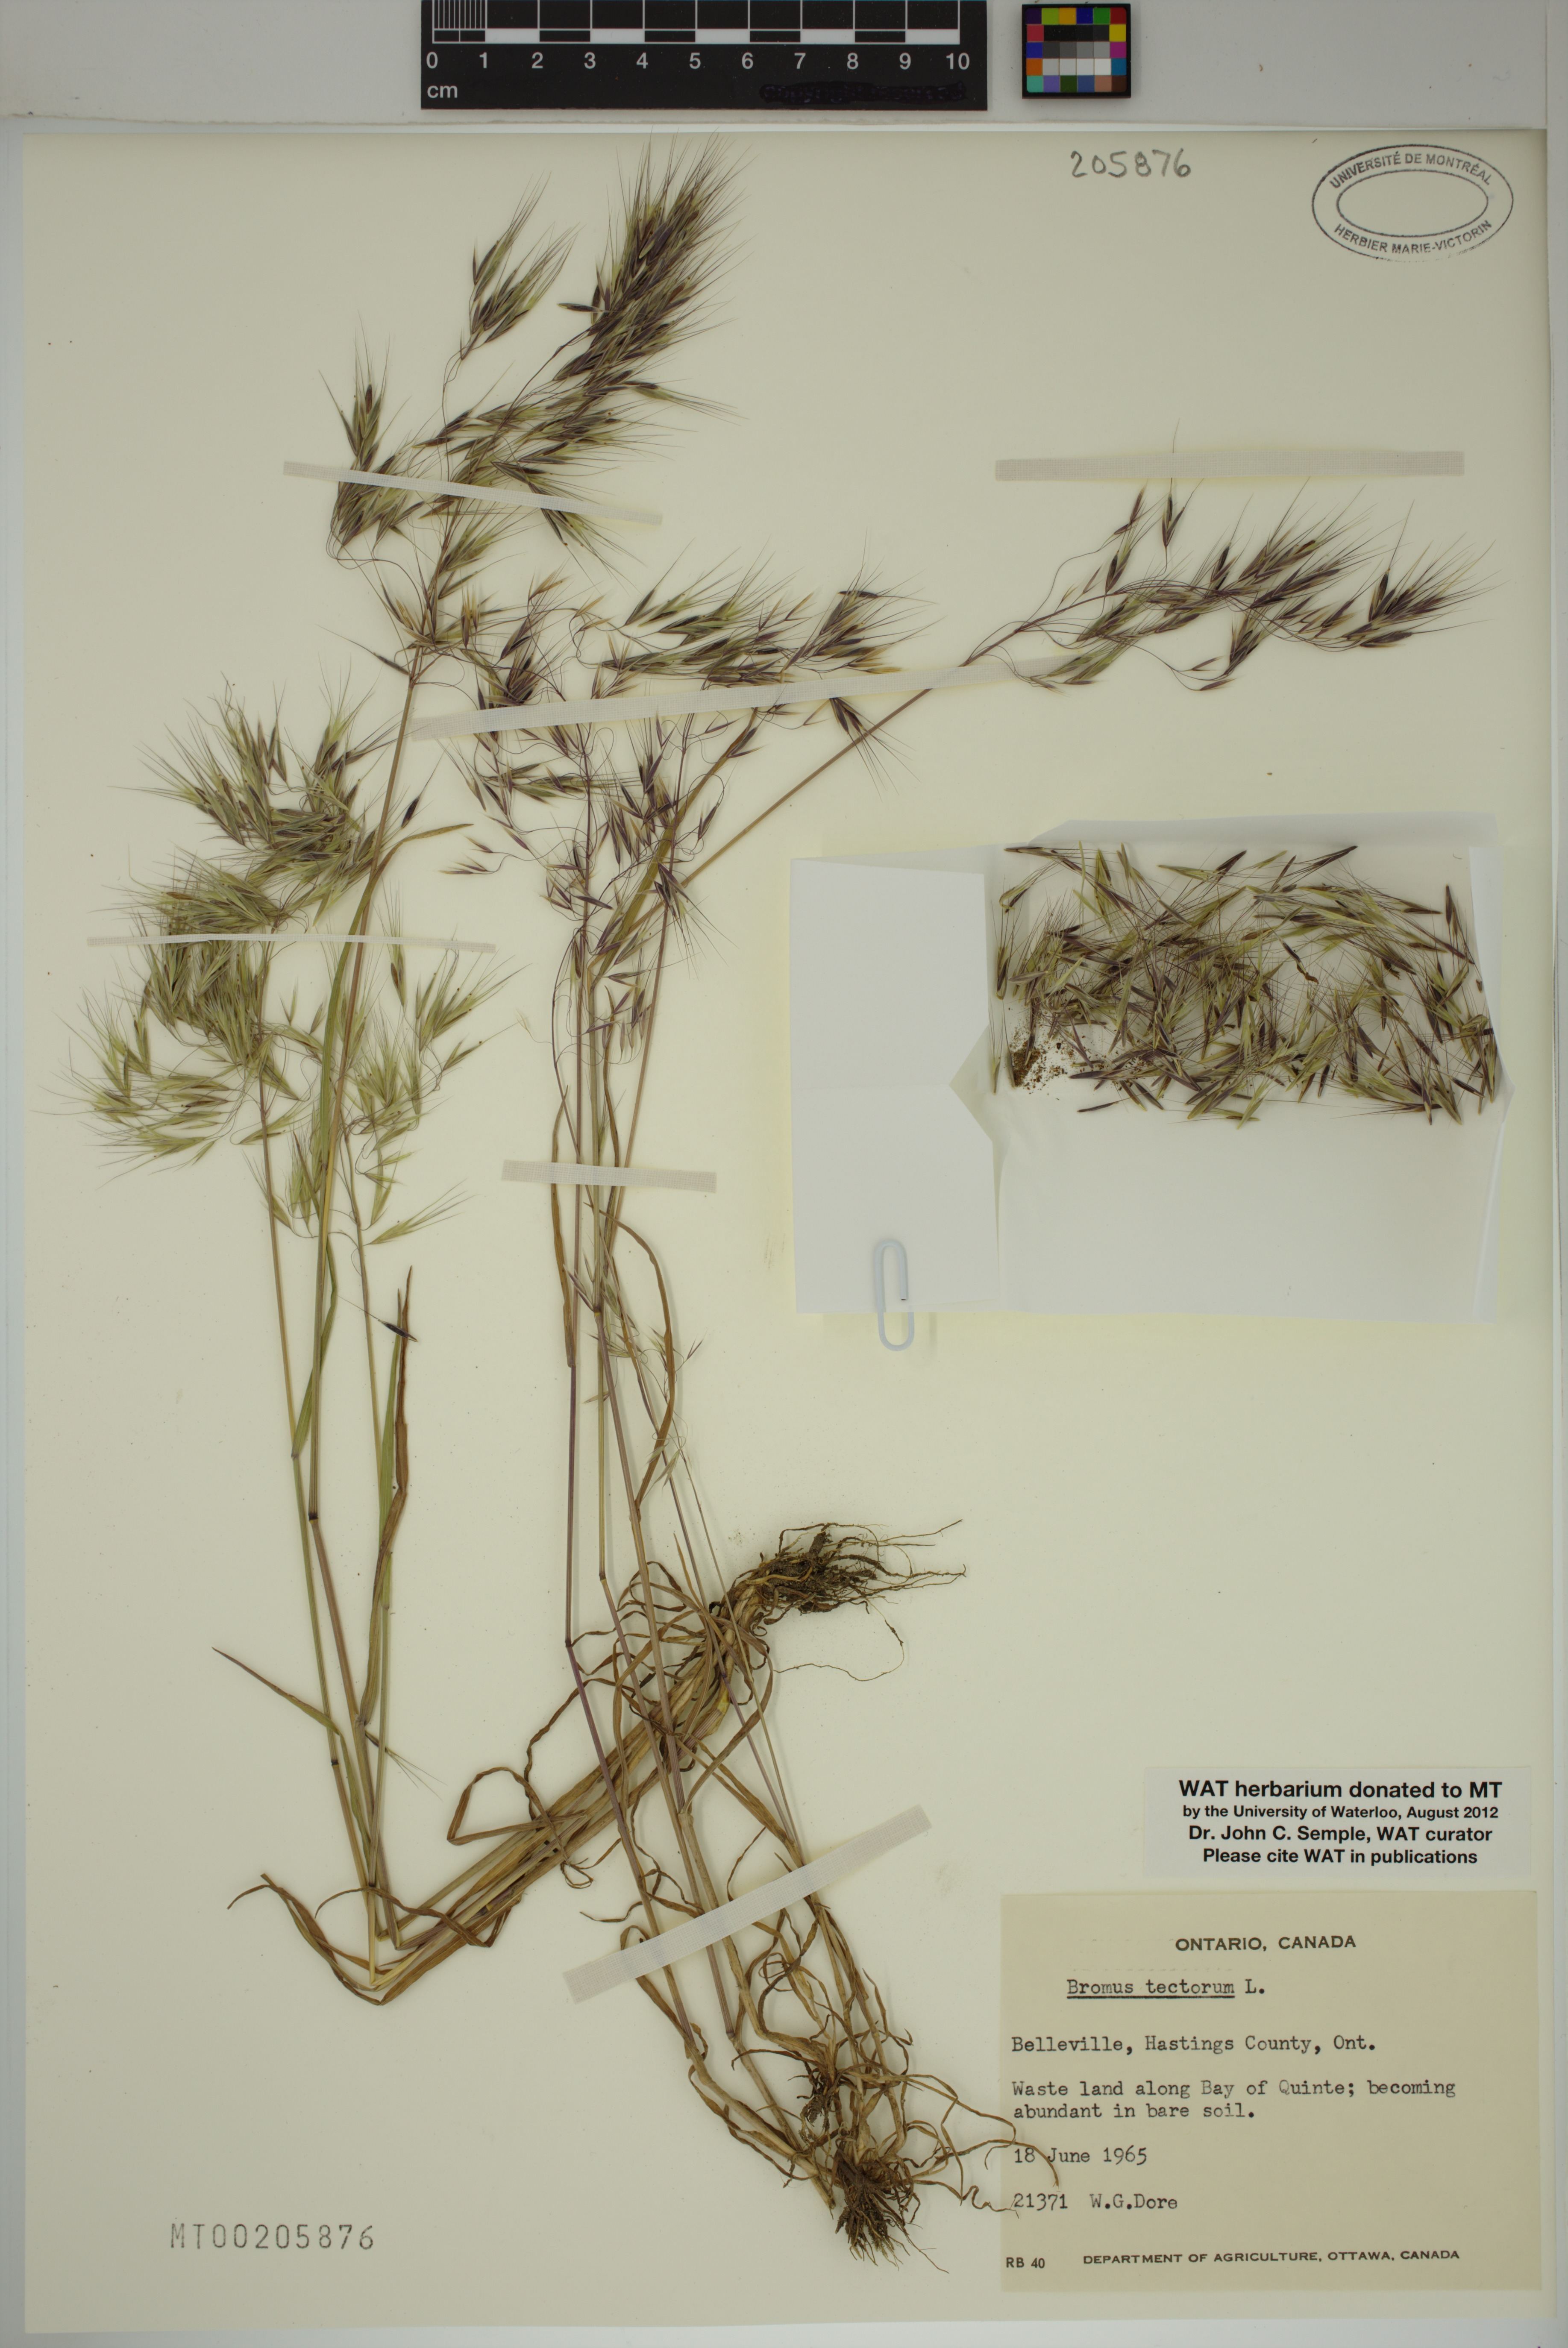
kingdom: Plantae
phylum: Tracheophyta
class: Liliopsida
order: Poales
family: Poaceae
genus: Bromus
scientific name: Bromus tectorum
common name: Cheatgrass
